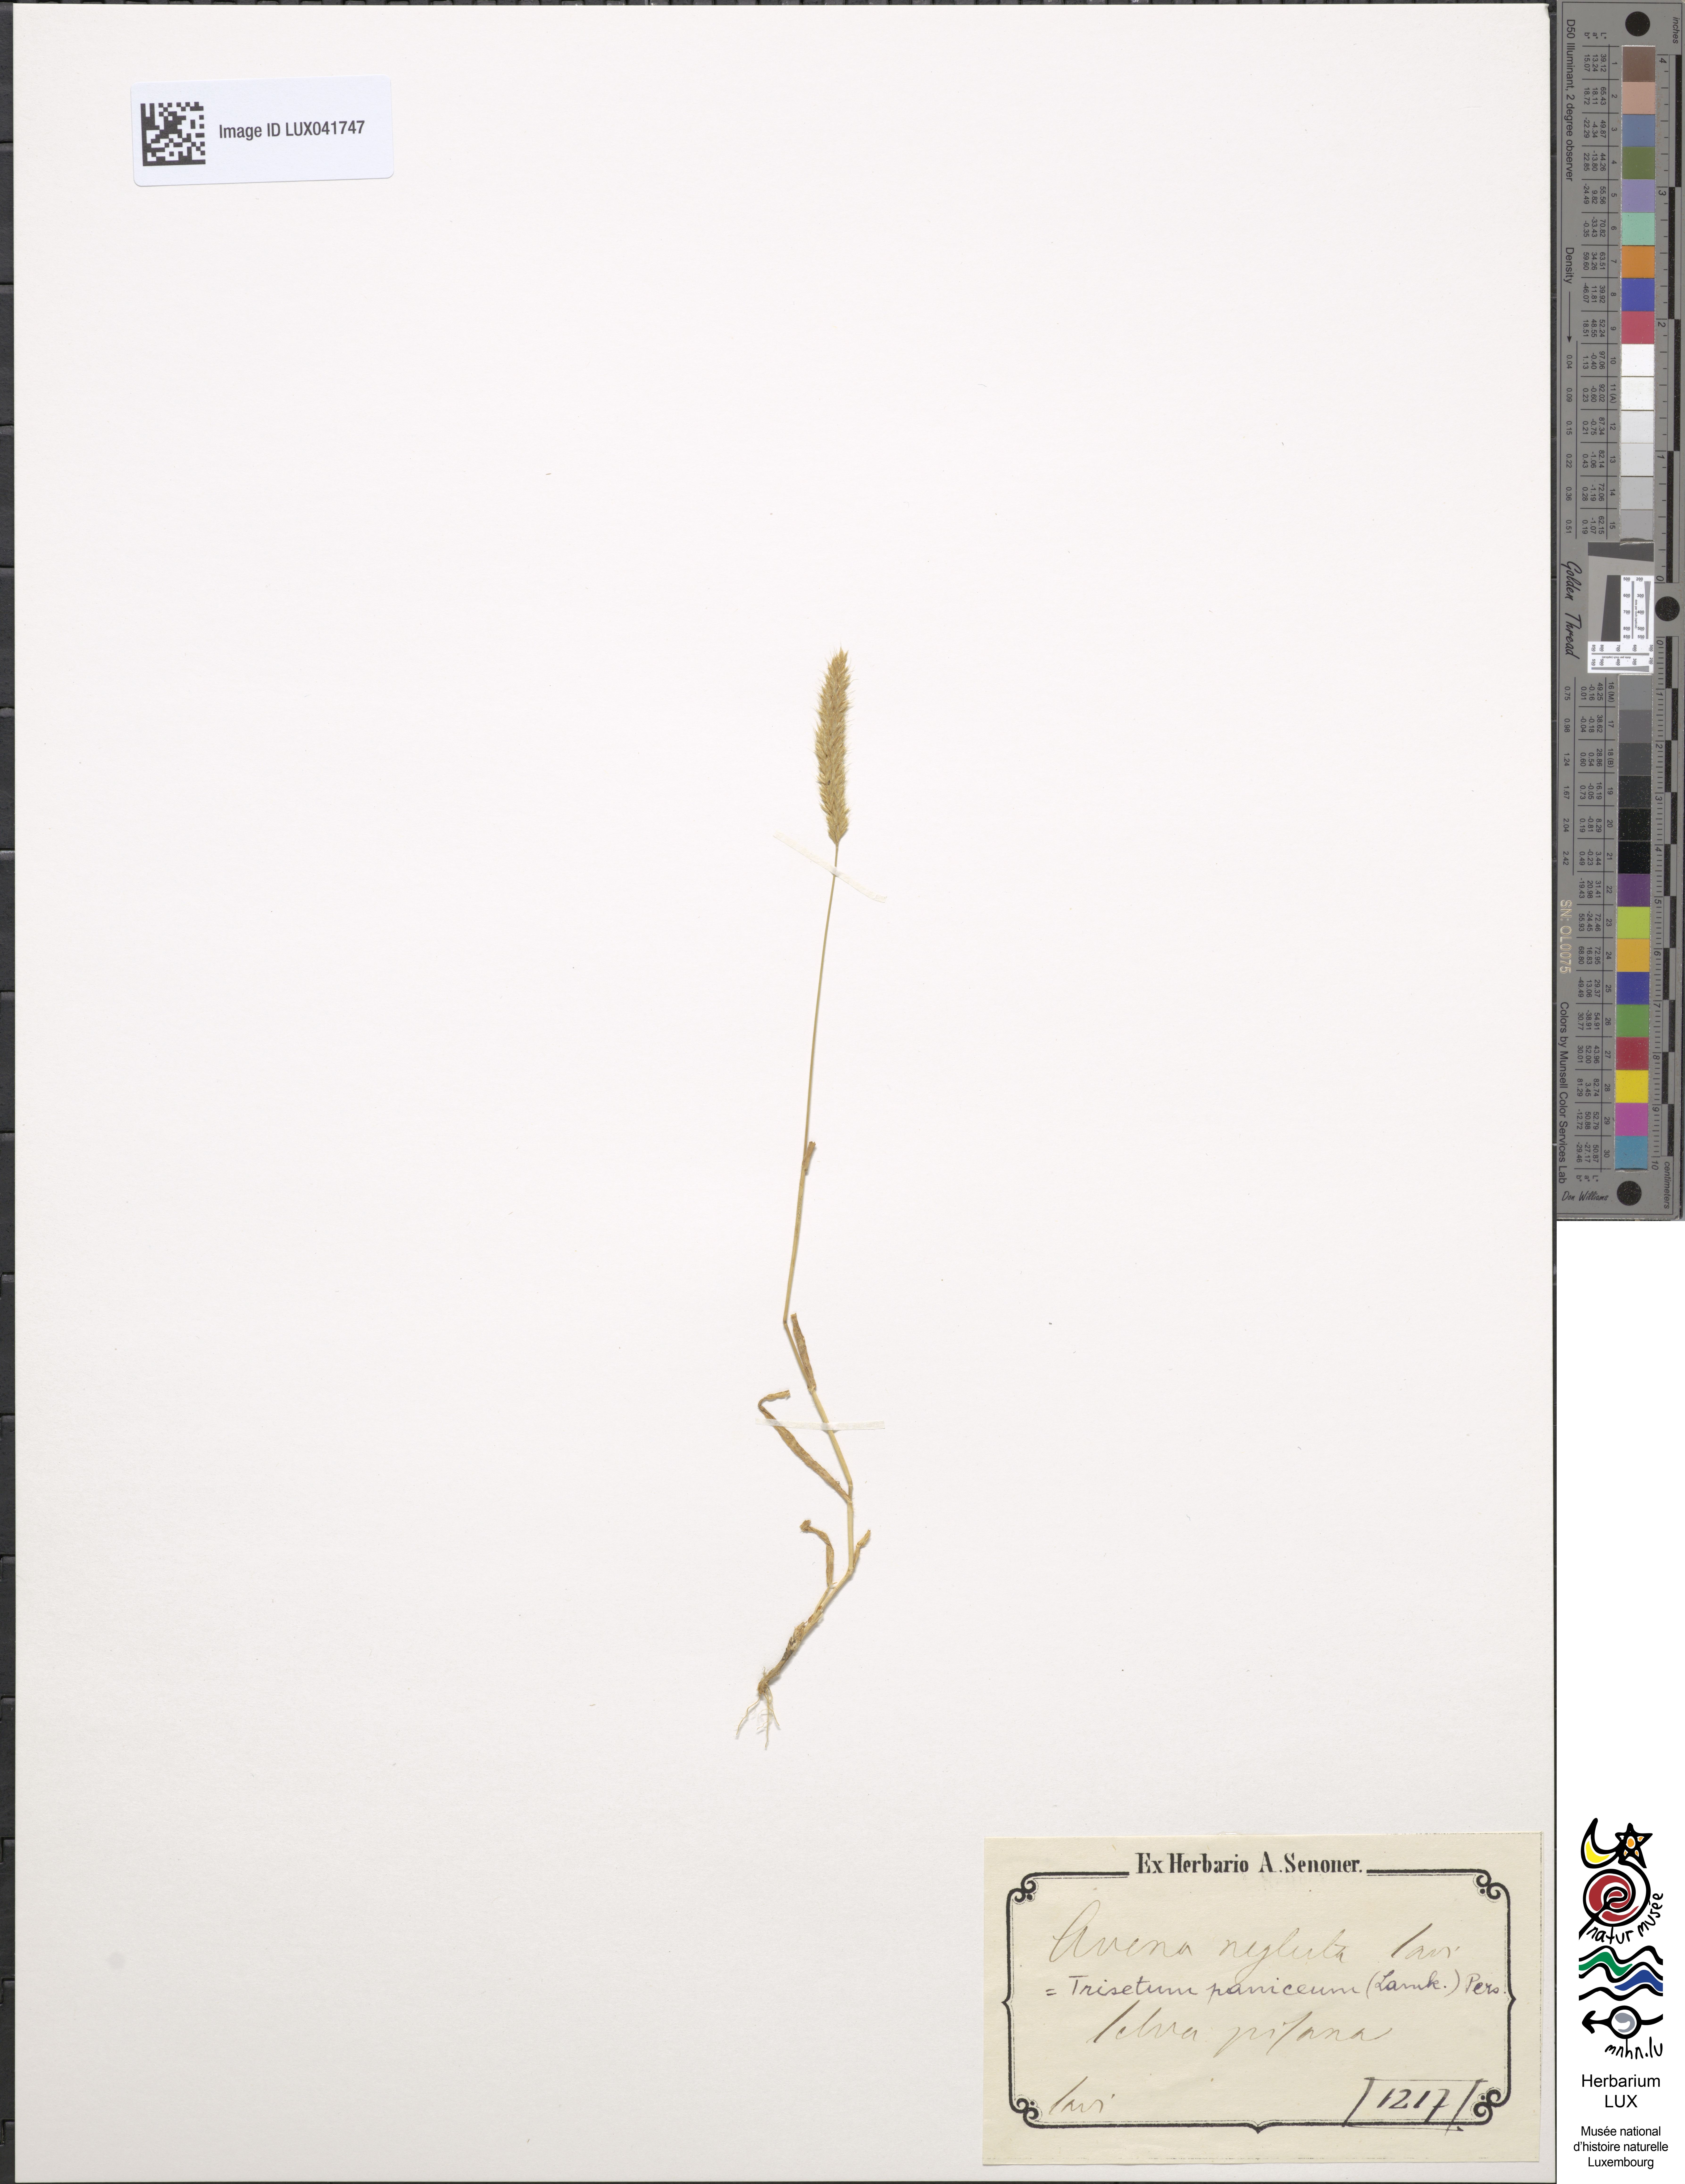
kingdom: Plantae
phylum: Tracheophyta
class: Liliopsida
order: Poales
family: Poaceae
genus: Trisetaria
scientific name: Trisetaria panicea
